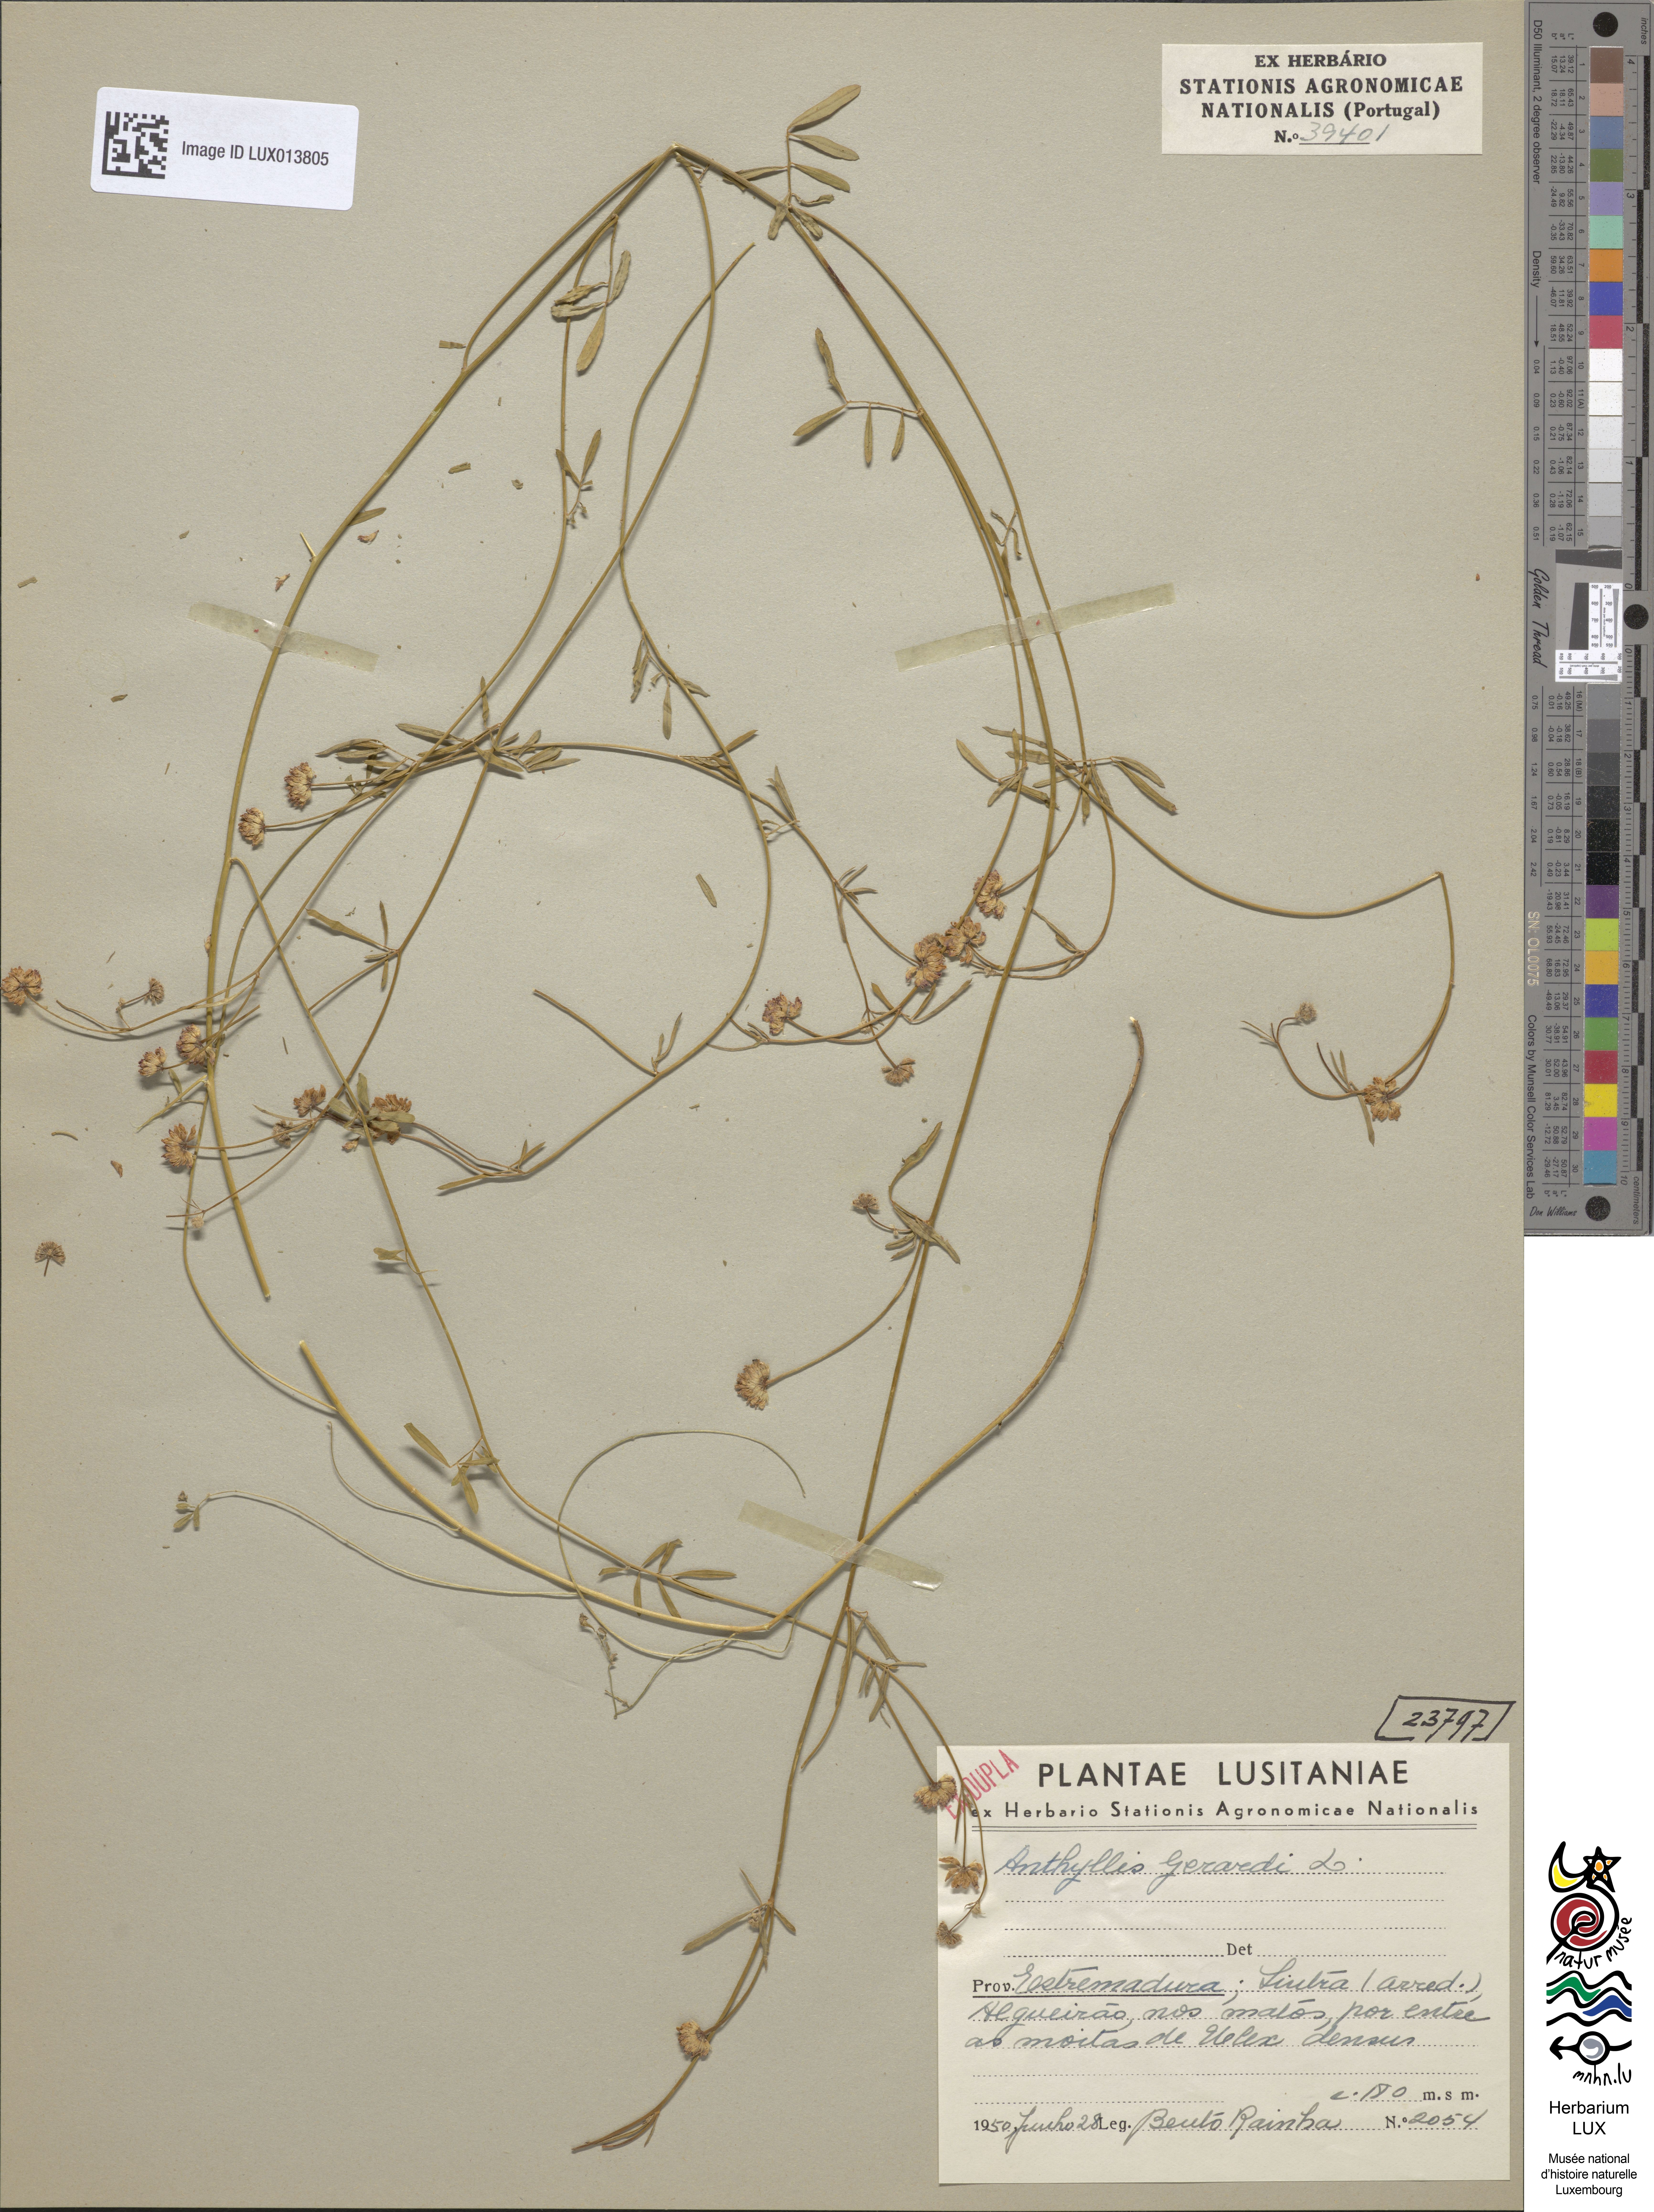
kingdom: Plantae
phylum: Tracheophyta
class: Magnoliopsida
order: Fabales
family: Fabaceae
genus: Dorycnopsis
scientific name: Dorycnopsis gerardi
